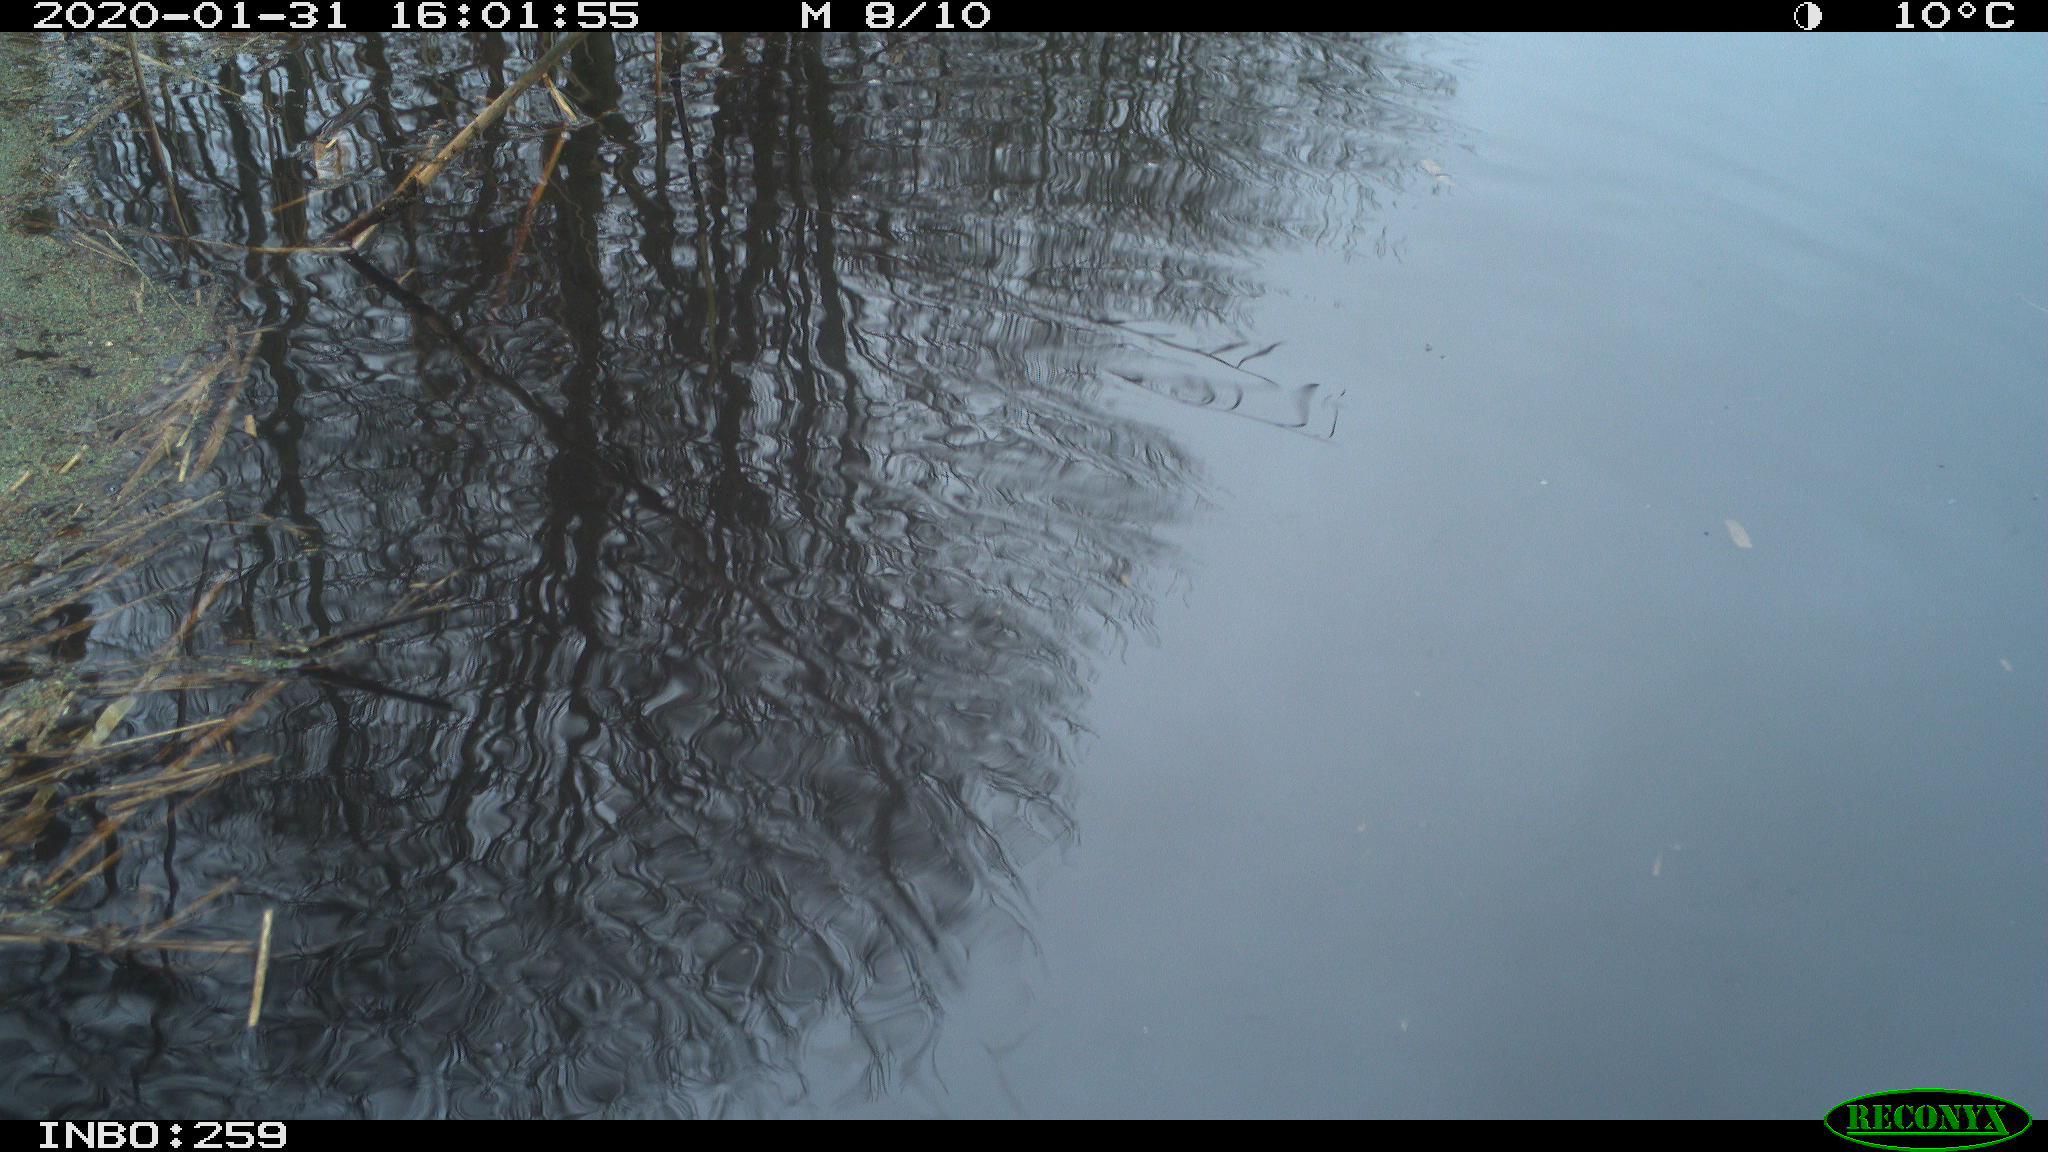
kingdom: Animalia
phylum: Chordata
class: Aves
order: Gruiformes
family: Rallidae
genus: Gallinula
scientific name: Gallinula chloropus
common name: Common moorhen
